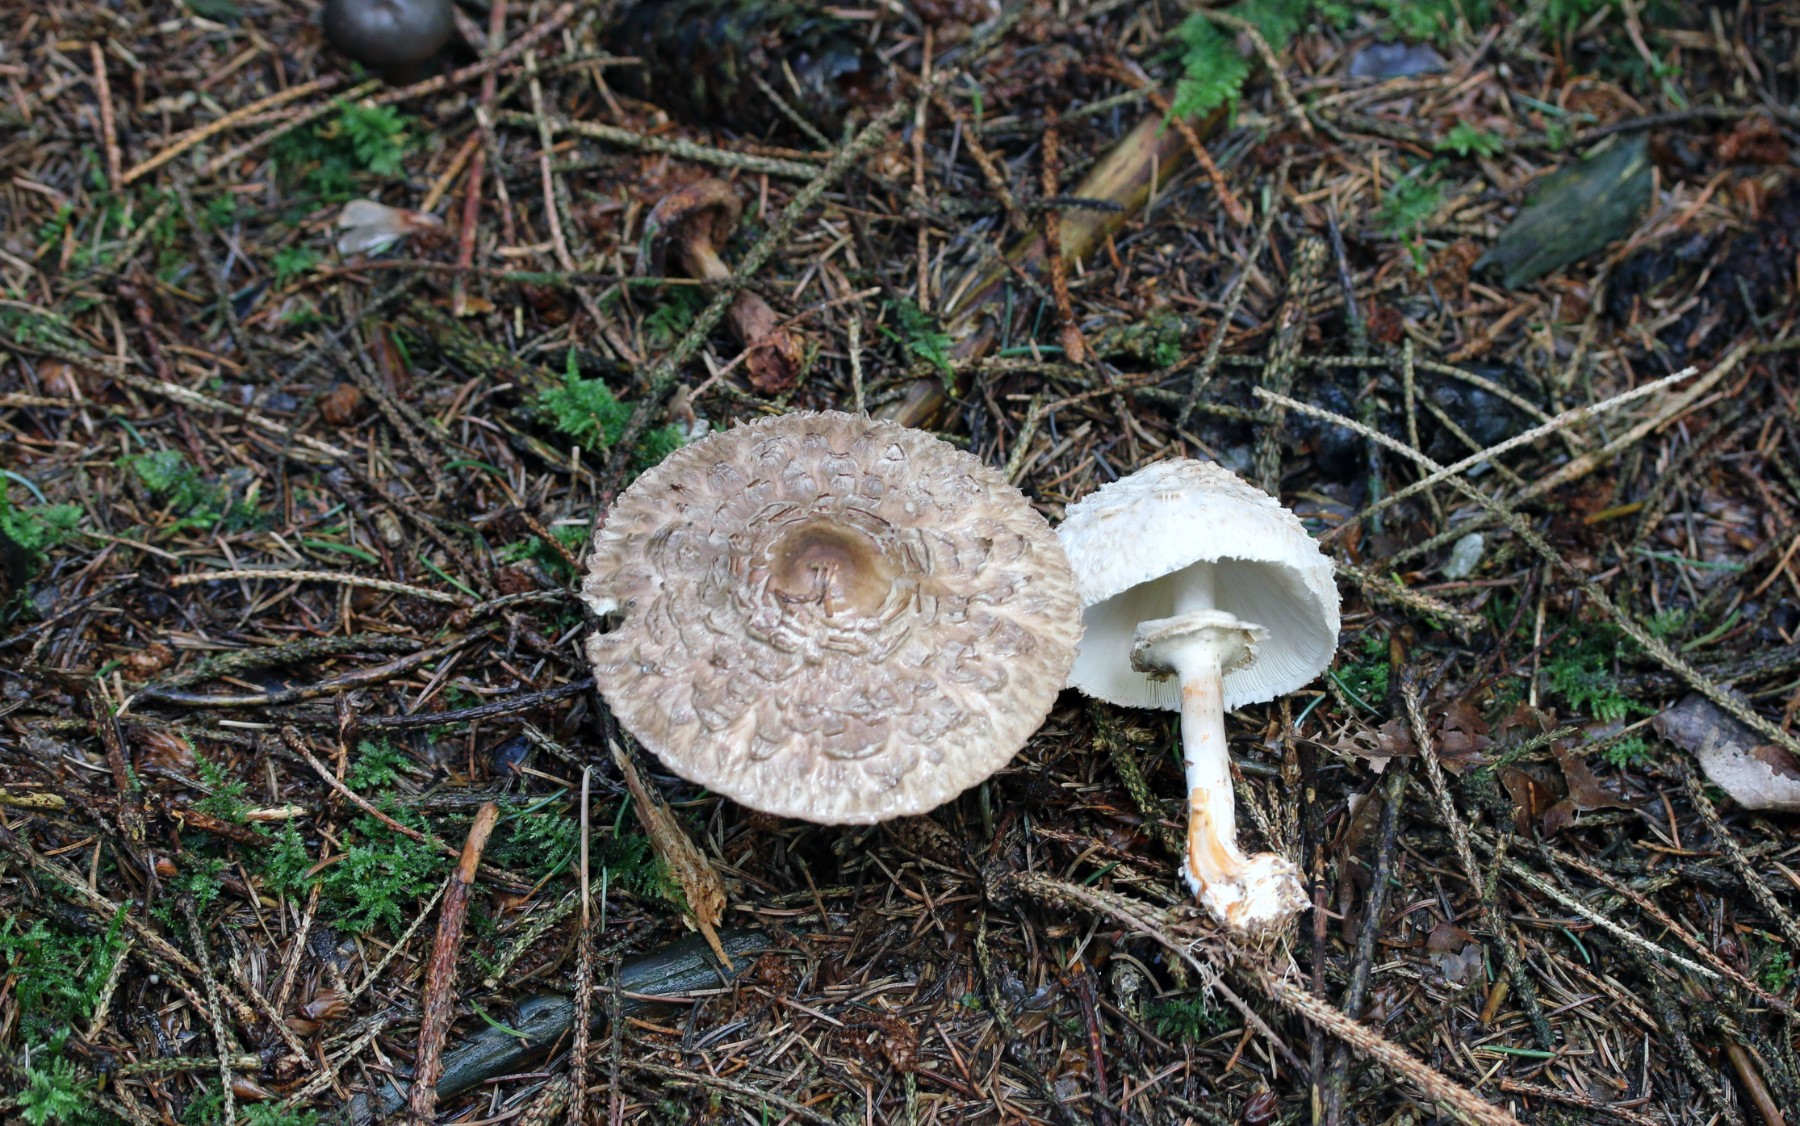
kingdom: Fungi
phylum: Basidiomycota
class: Agaricomycetes
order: Agaricales
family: Agaricaceae
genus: Chlorophyllum
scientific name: Chlorophyllum olivieri
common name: almindelig rabarberhat
